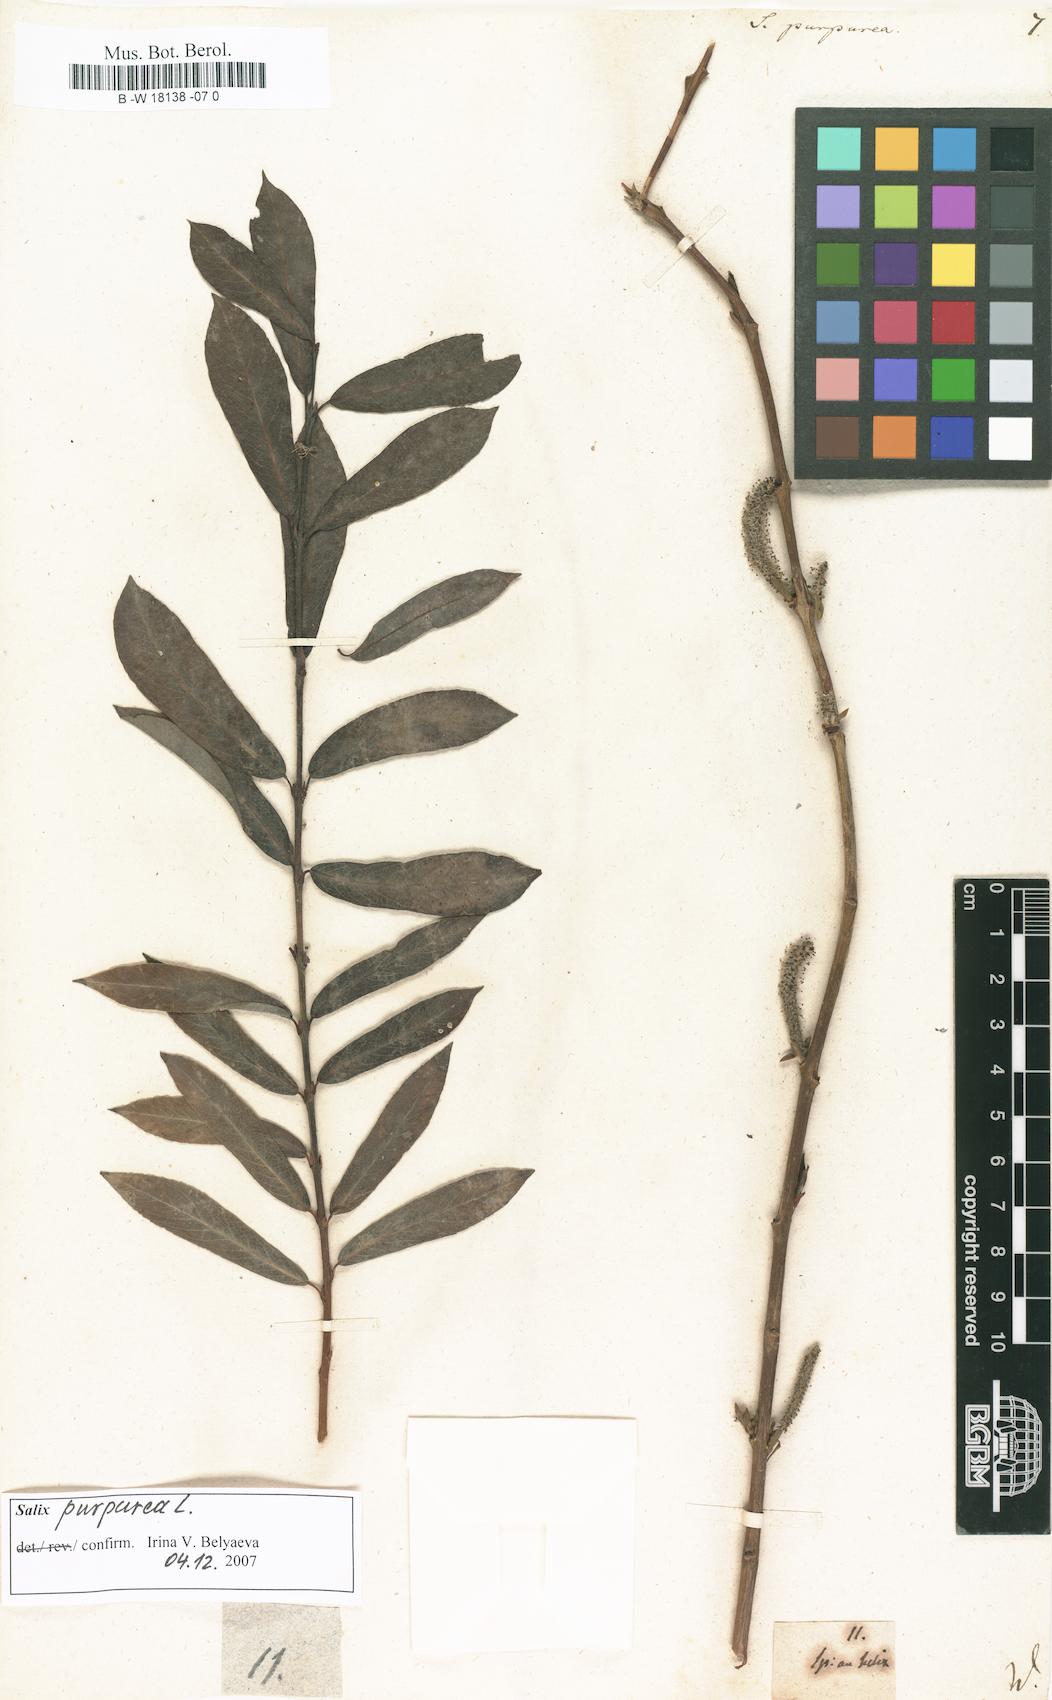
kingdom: Plantae
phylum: Tracheophyta
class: Magnoliopsida
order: Malpighiales
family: Salicaceae
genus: Salix
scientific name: Salix purpurea
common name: Purple willow
